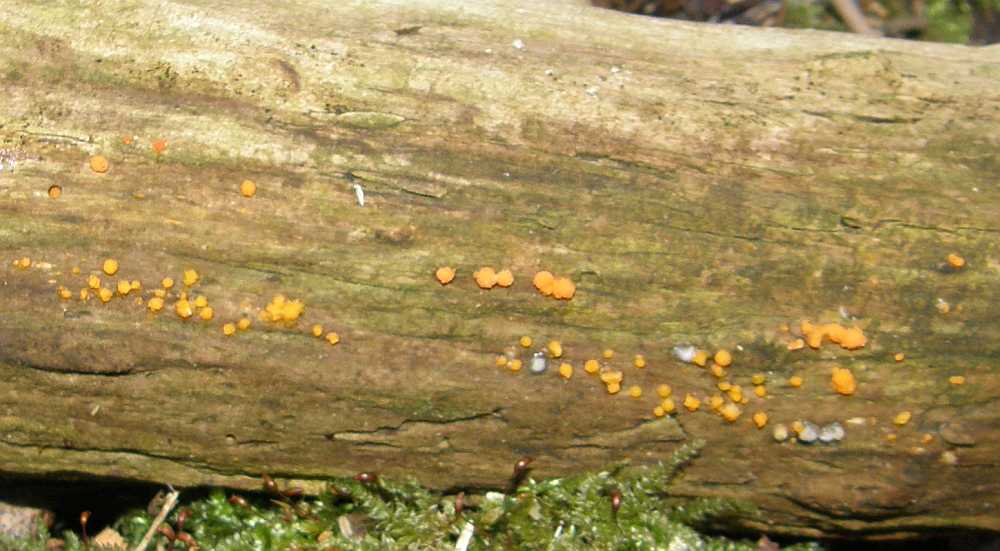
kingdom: Fungi
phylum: Basidiomycota
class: Dacrymycetes
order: Dacrymycetales
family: Dacrymycetaceae
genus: Dacrymyces
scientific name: Dacrymyces stillatus
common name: almindelig tåresvamp
